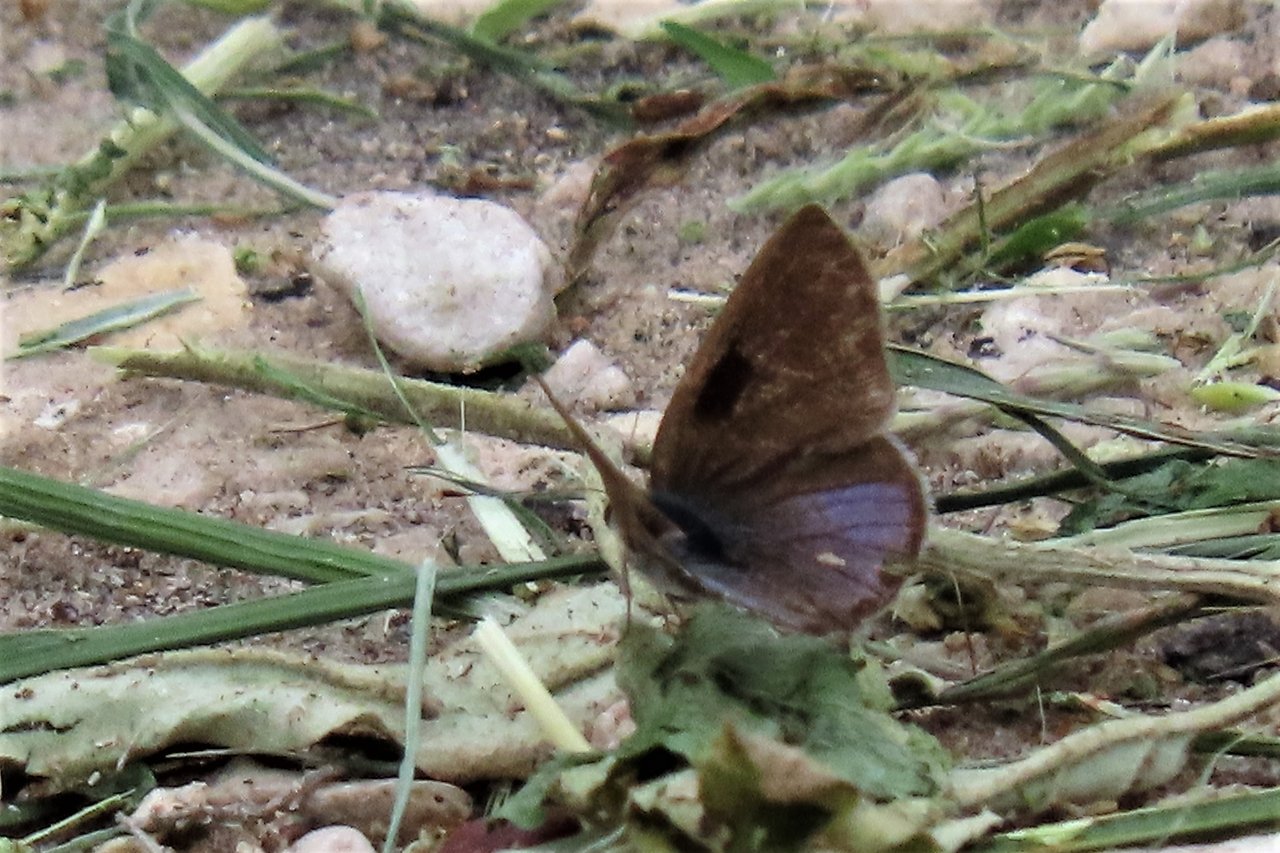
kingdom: Animalia
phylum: Arthropoda
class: Insecta
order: Lepidoptera
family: Lycaenidae
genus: Strymon
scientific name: Strymon bazochii
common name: Lantana Scrub-Hairstreak
